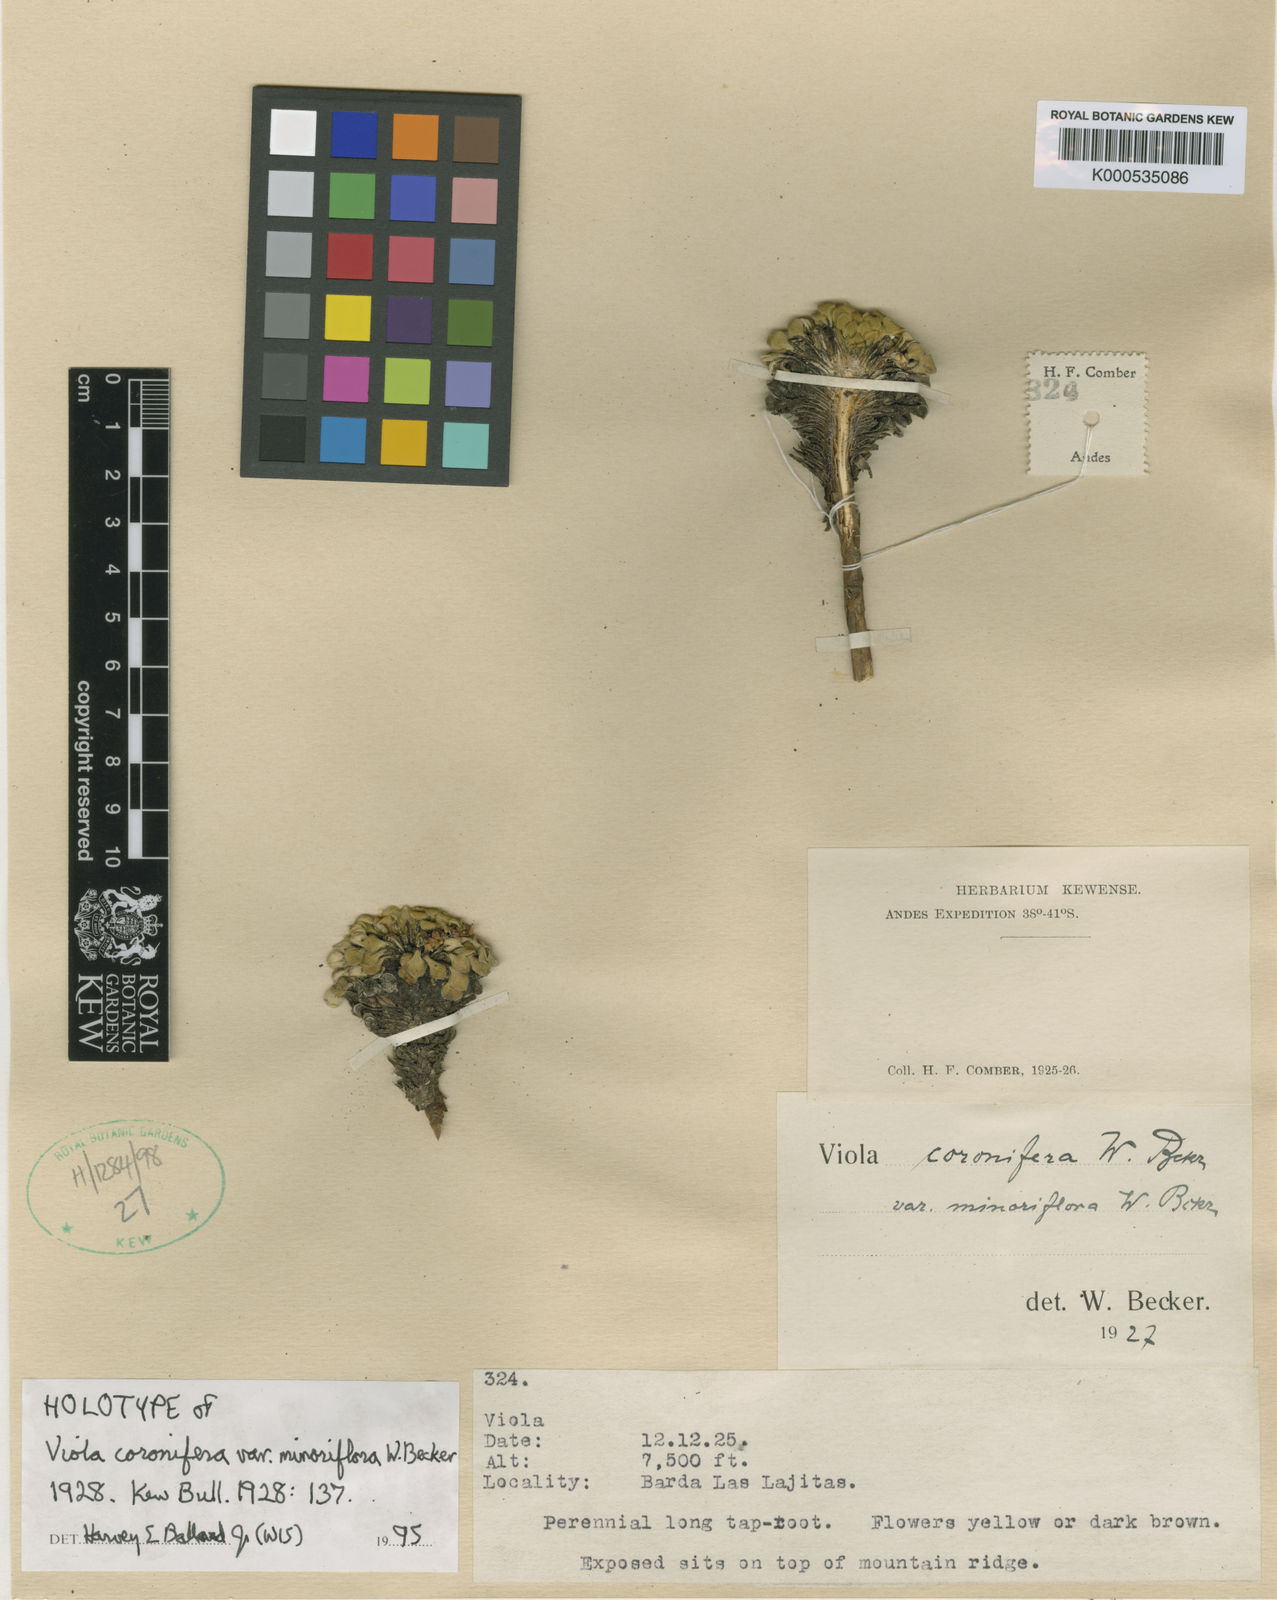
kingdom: Plantae
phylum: Tracheophyta
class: Magnoliopsida
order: Malpighiales
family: Violaceae
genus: Viola
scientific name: Viola coronifera
